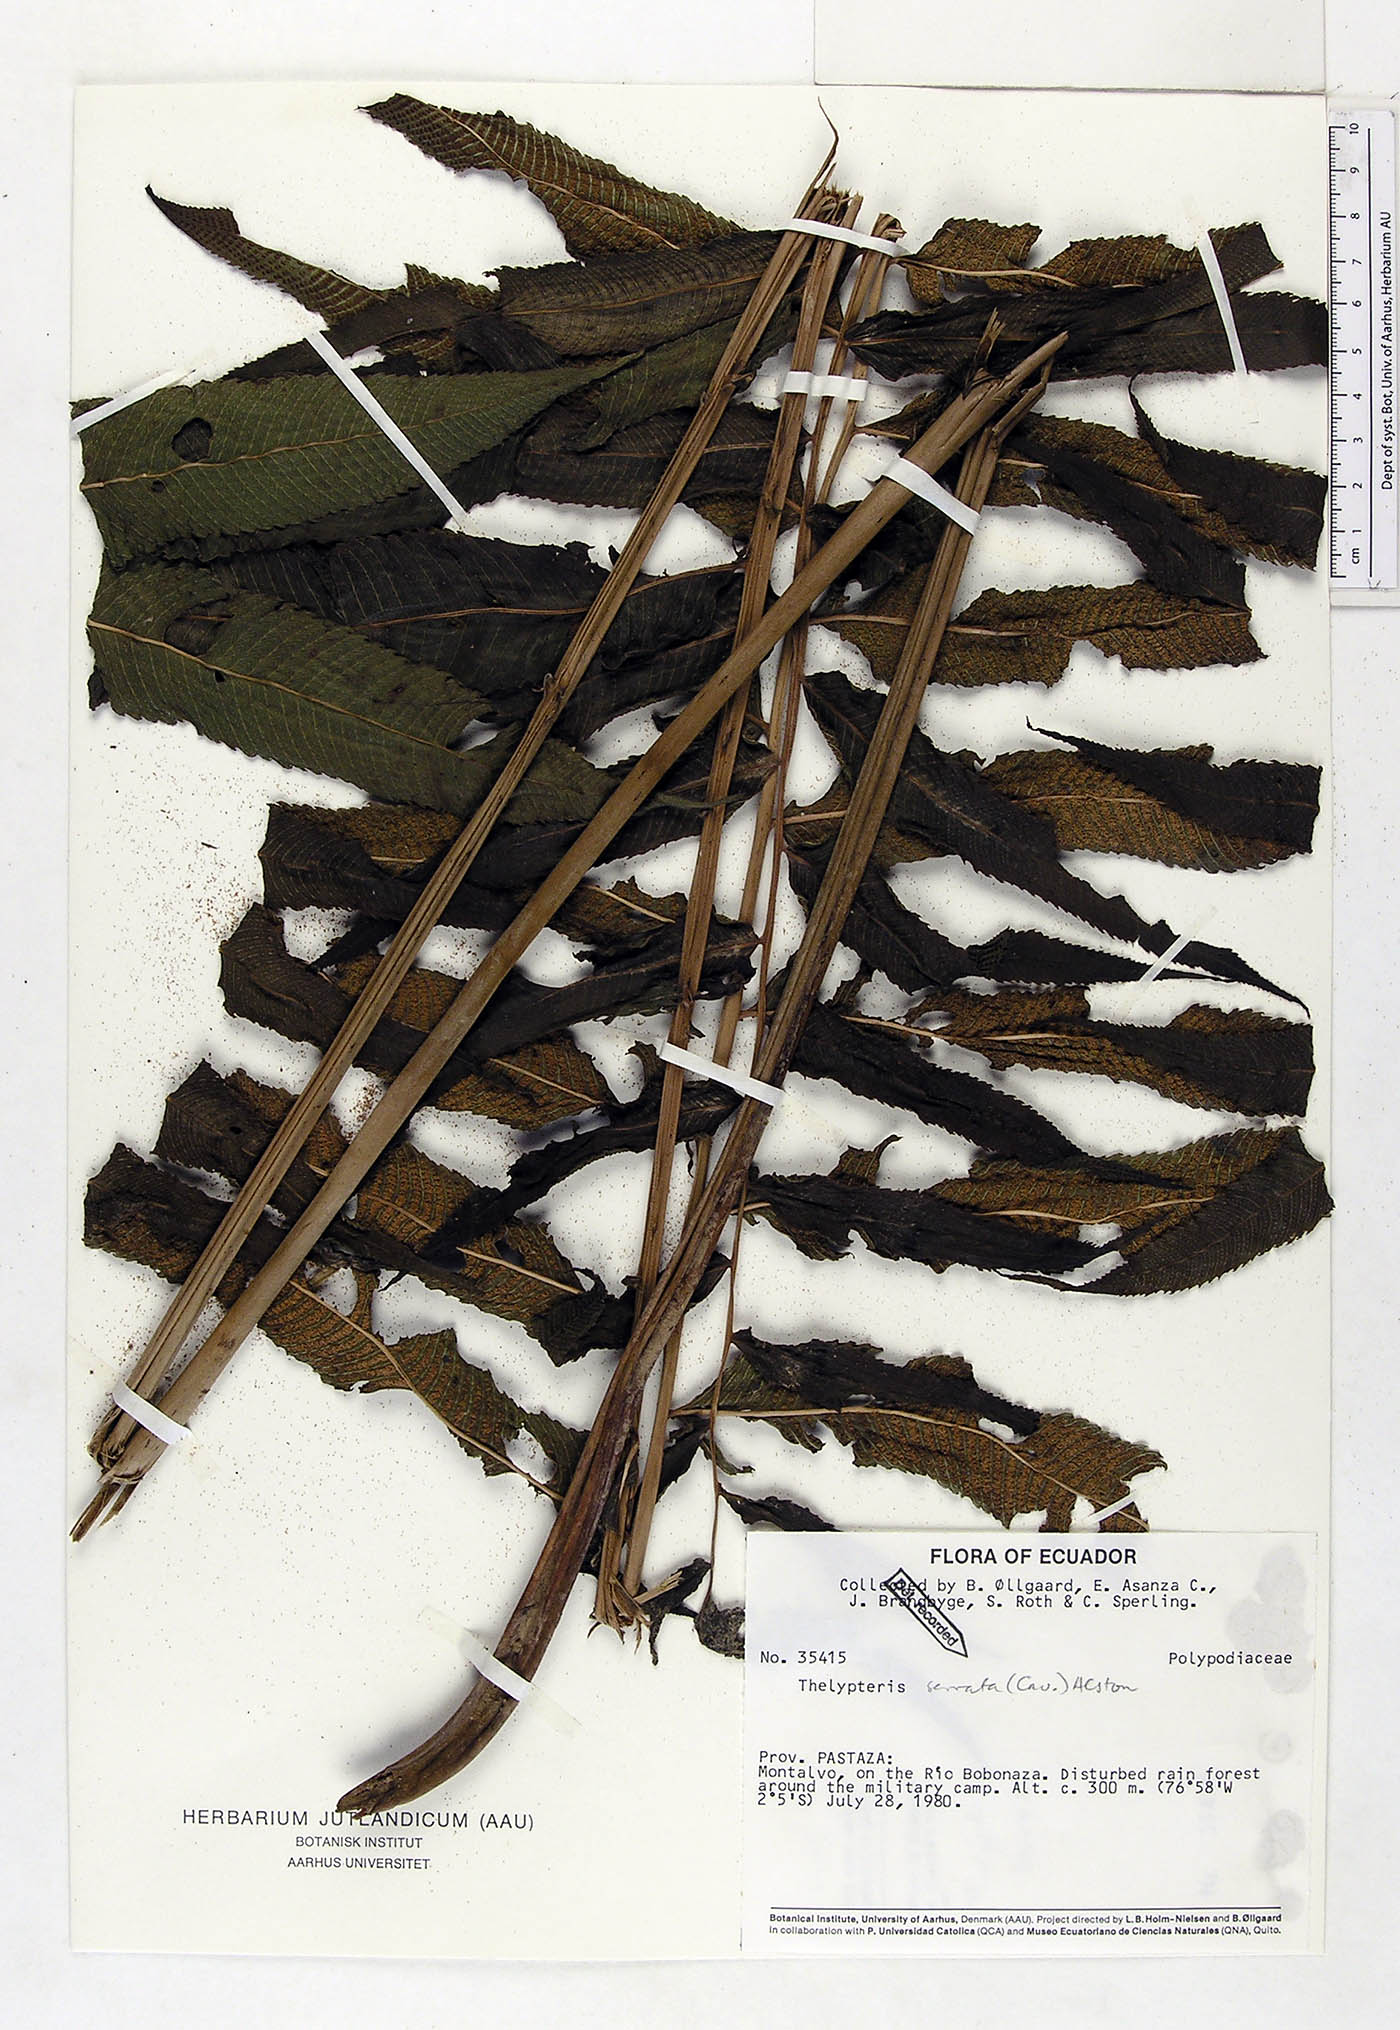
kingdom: Plantae
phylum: Tracheophyta
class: Polypodiopsida
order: Polypodiales
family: Thelypteridaceae
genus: Meniscium
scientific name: Meniscium serratum
